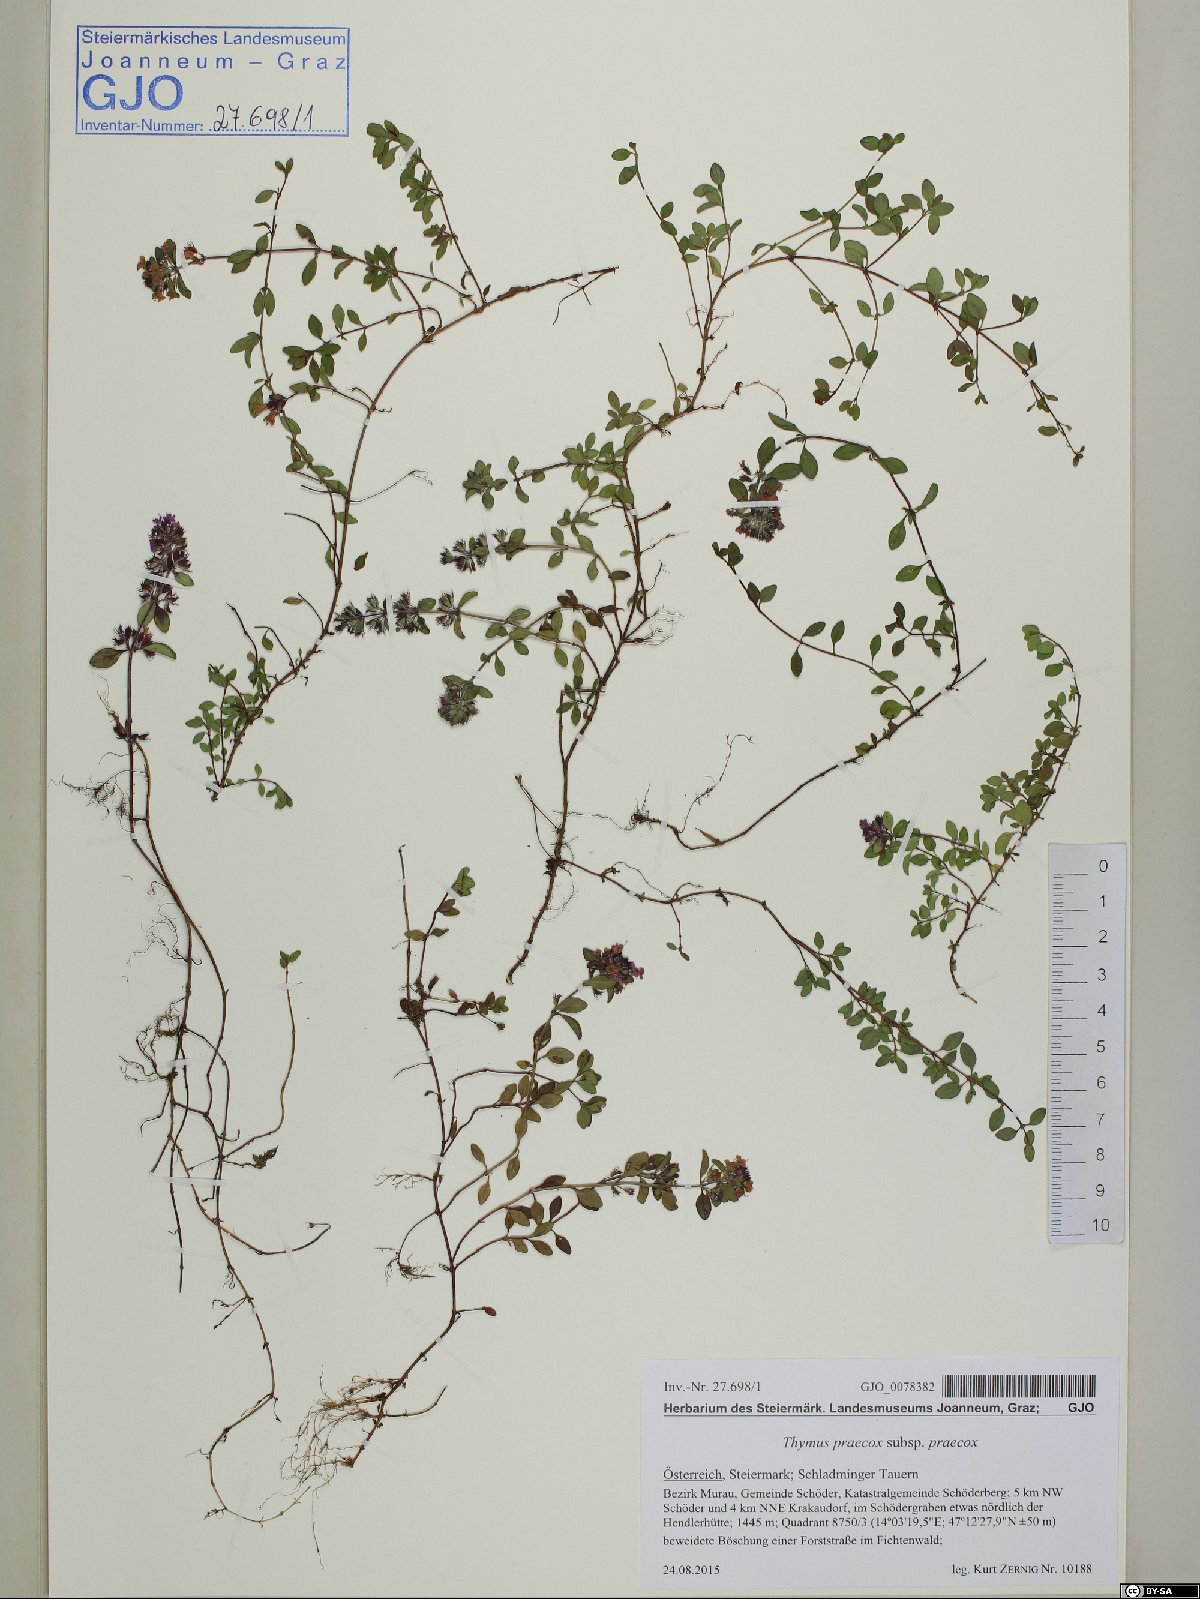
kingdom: Plantae
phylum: Tracheophyta
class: Magnoliopsida
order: Lamiales
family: Lamiaceae
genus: Thymus
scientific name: Thymus praecox
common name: Wild thyme
